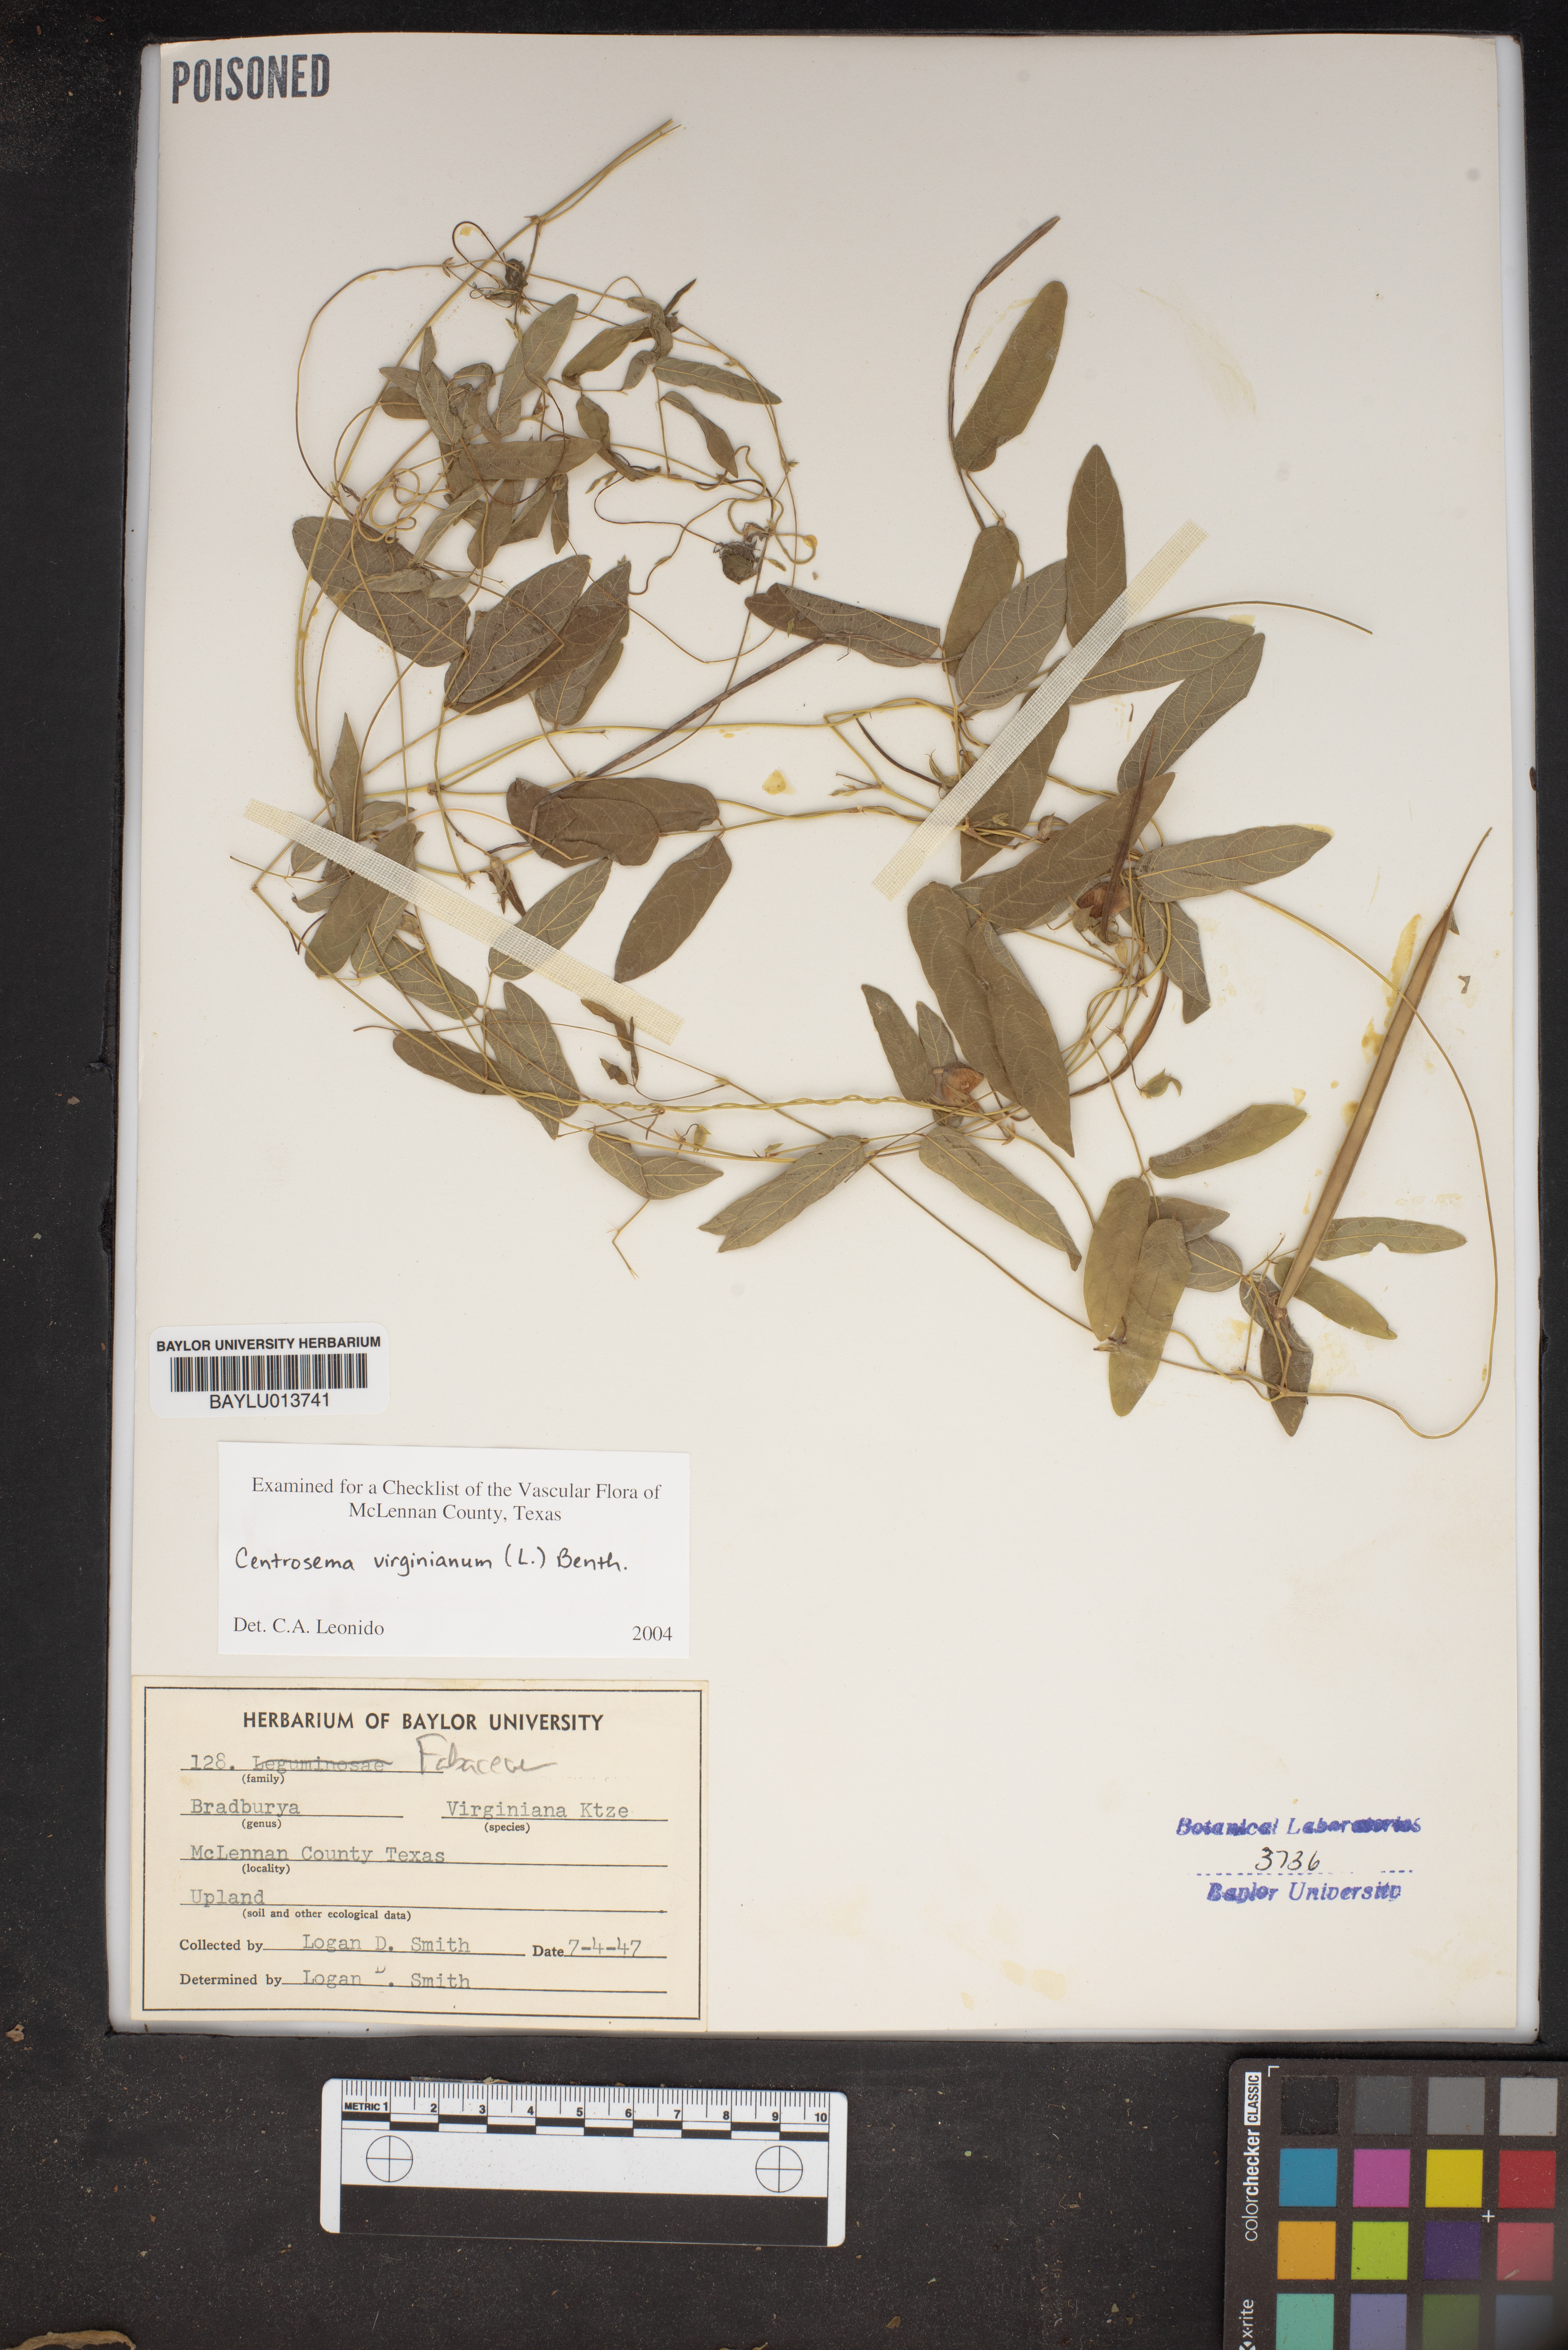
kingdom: Plantae
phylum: Tracheophyta
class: Magnoliopsida
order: Fabales
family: Fabaceae
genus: Centrosema
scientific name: Centrosema virginianum
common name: Butterfly-pea
